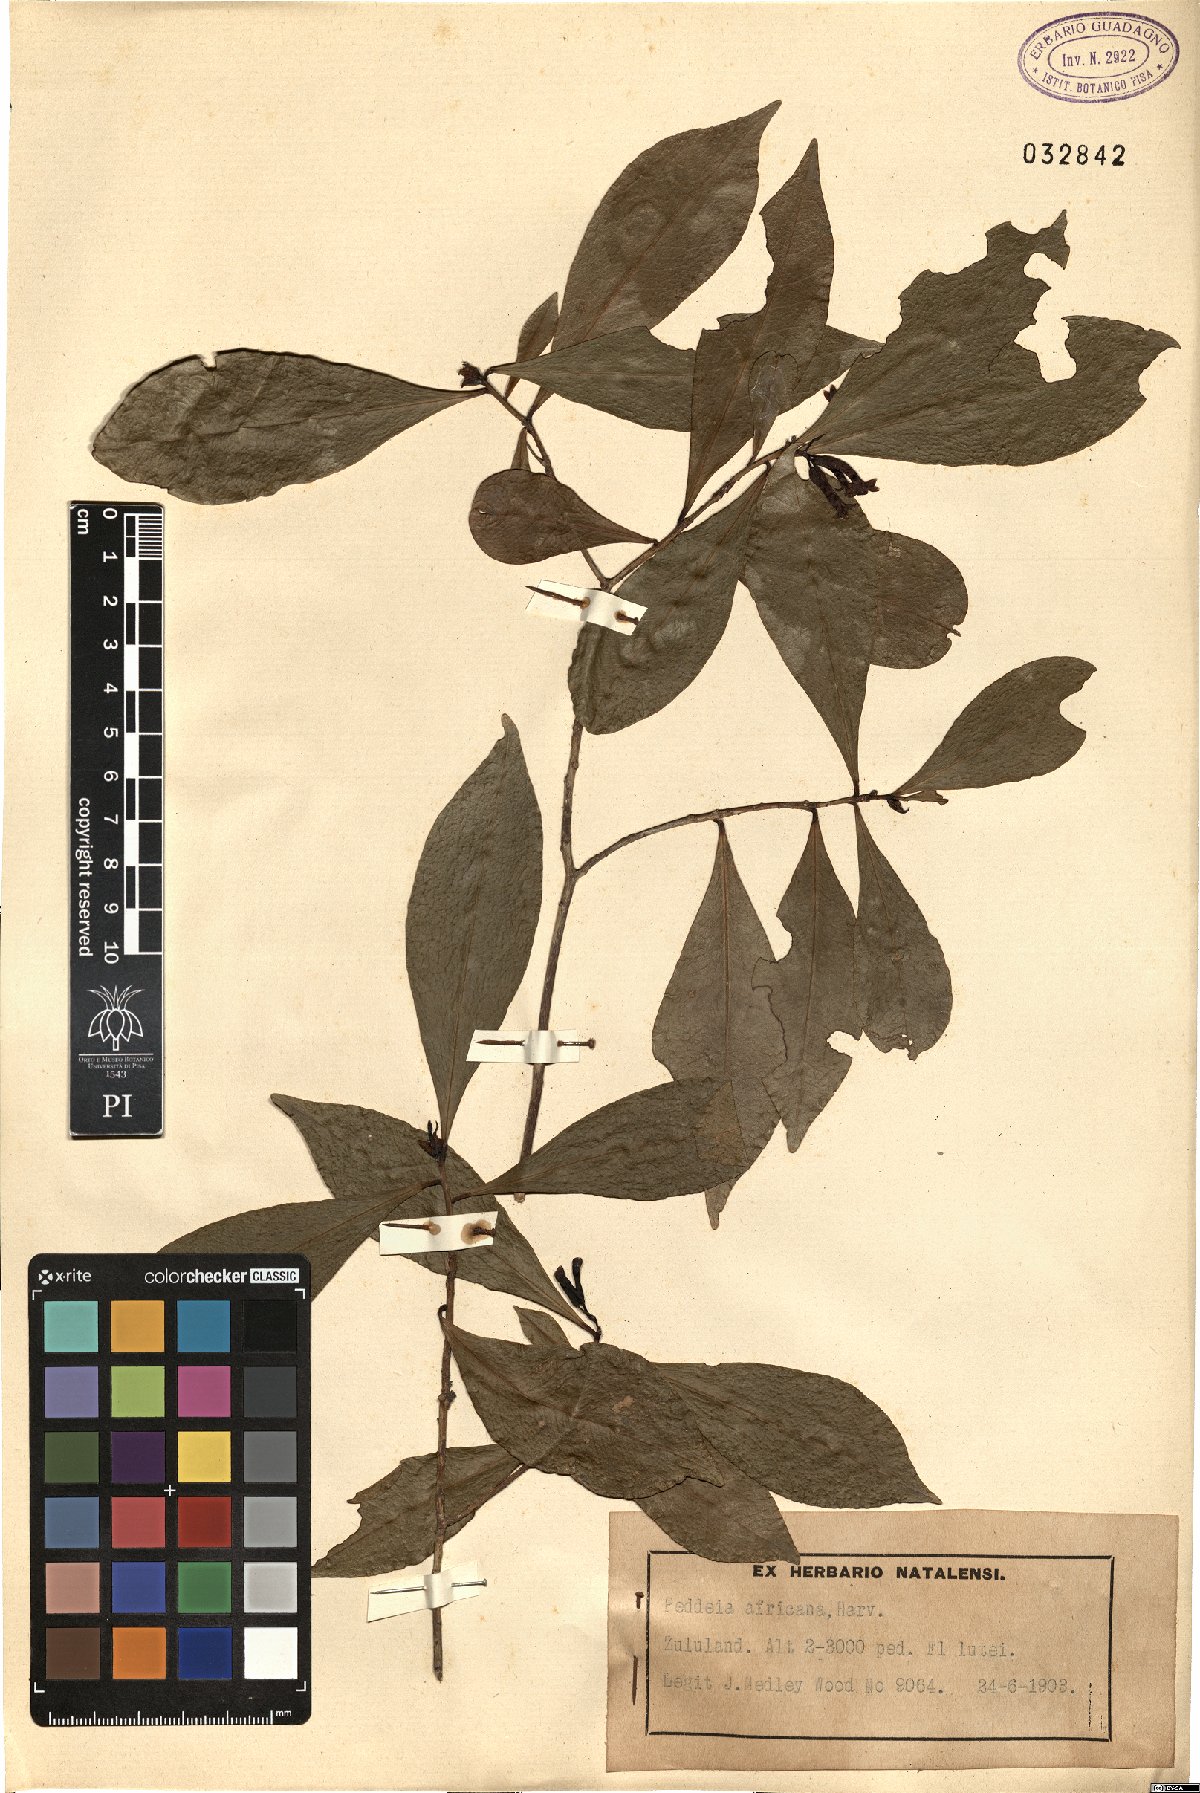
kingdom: Plantae
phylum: Tracheophyta
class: Magnoliopsida
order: Malvales
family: Thymelaeaceae
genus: Peddiea
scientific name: Peddiea africana
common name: Poison olive
